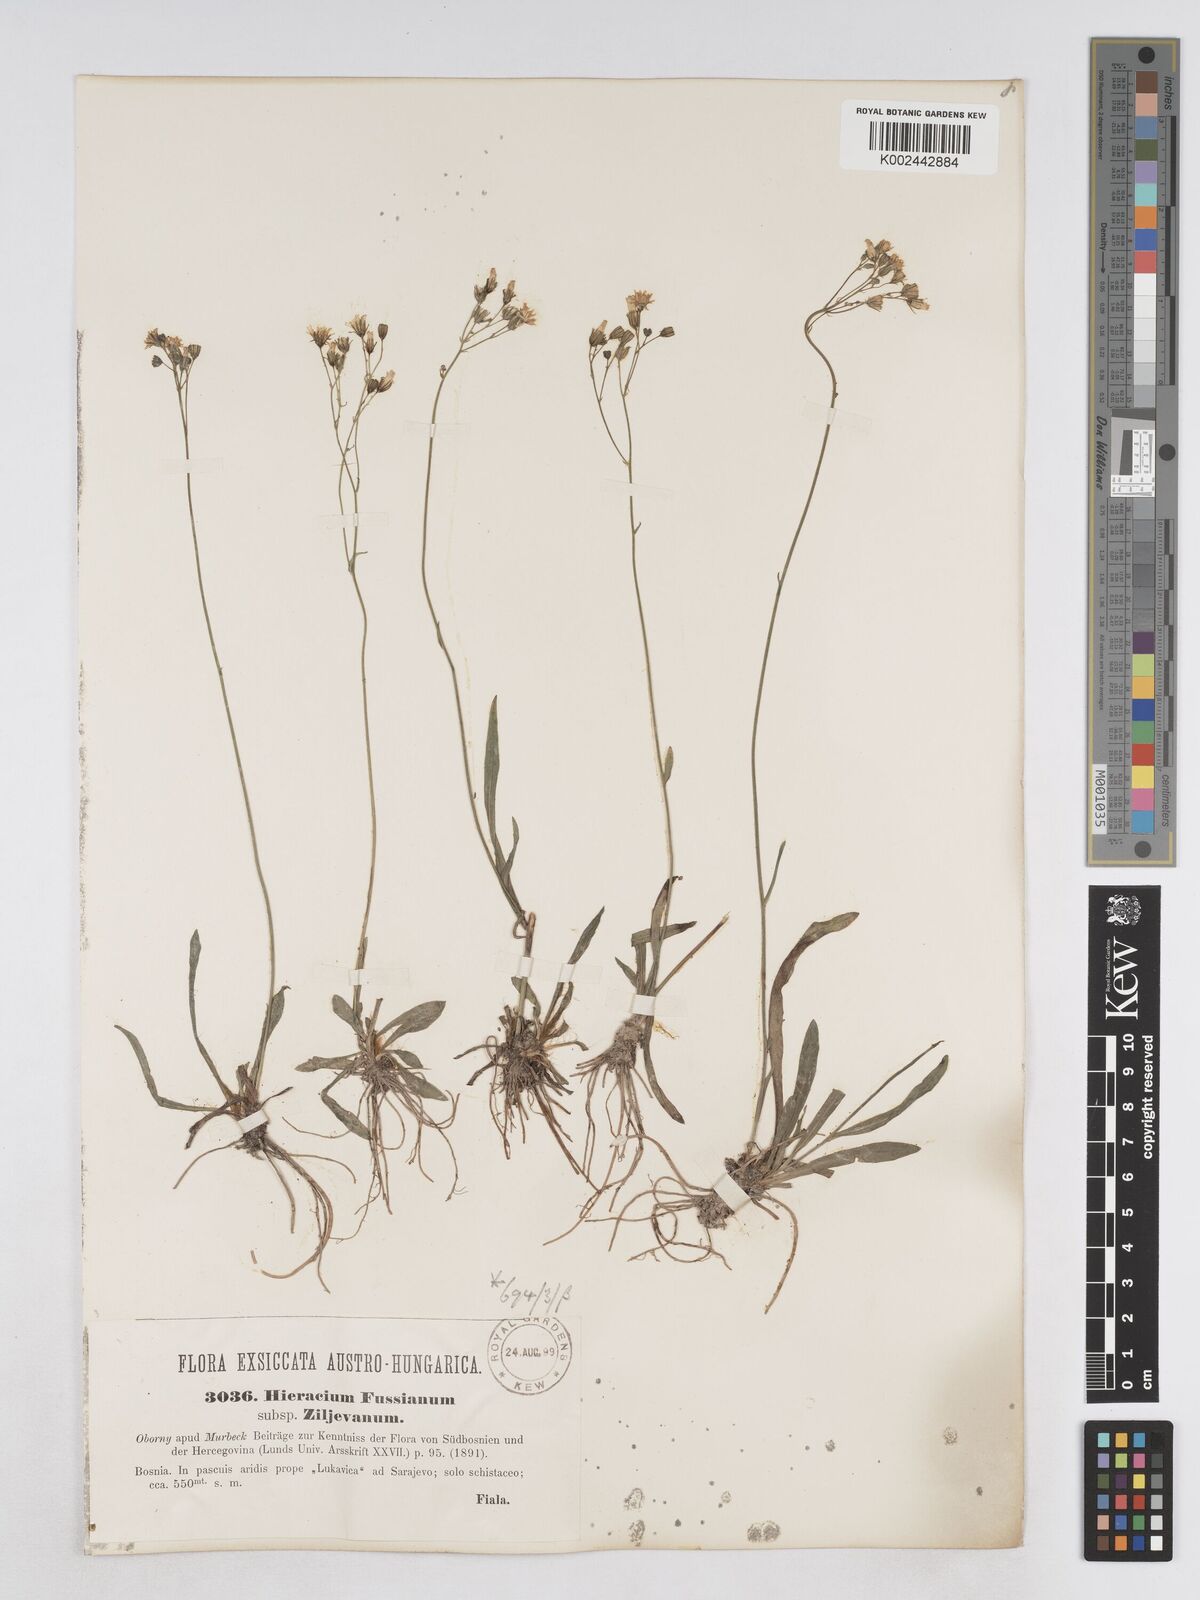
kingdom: Plantae
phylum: Tracheophyta
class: Magnoliopsida
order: Asterales
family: Asteraceae
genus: Pilosella
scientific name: Pilosella pavichii
